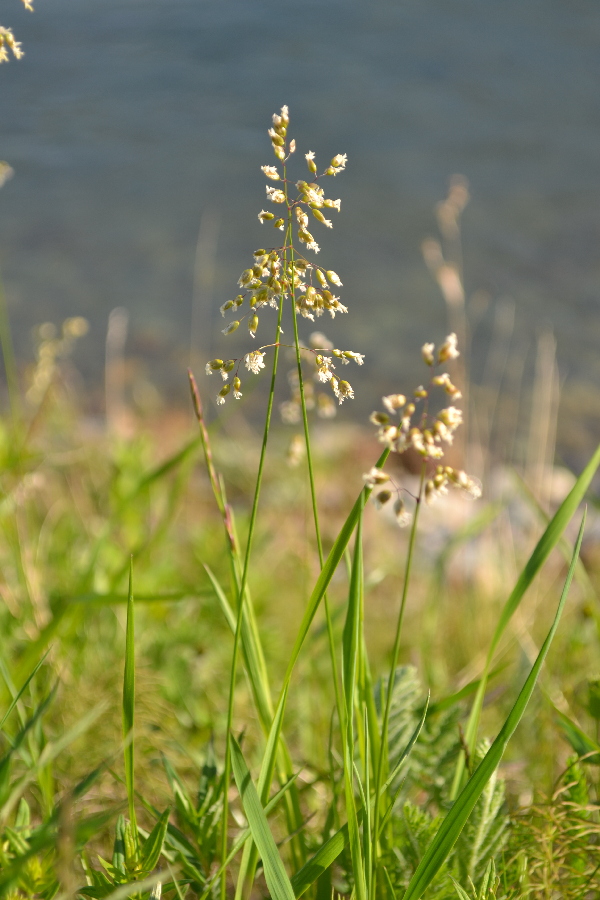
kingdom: Plantae
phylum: Tracheophyta
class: Magnoliopsida
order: Gentianales
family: Rubiaceae
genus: Hierochloe
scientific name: Hierochloe arctica
